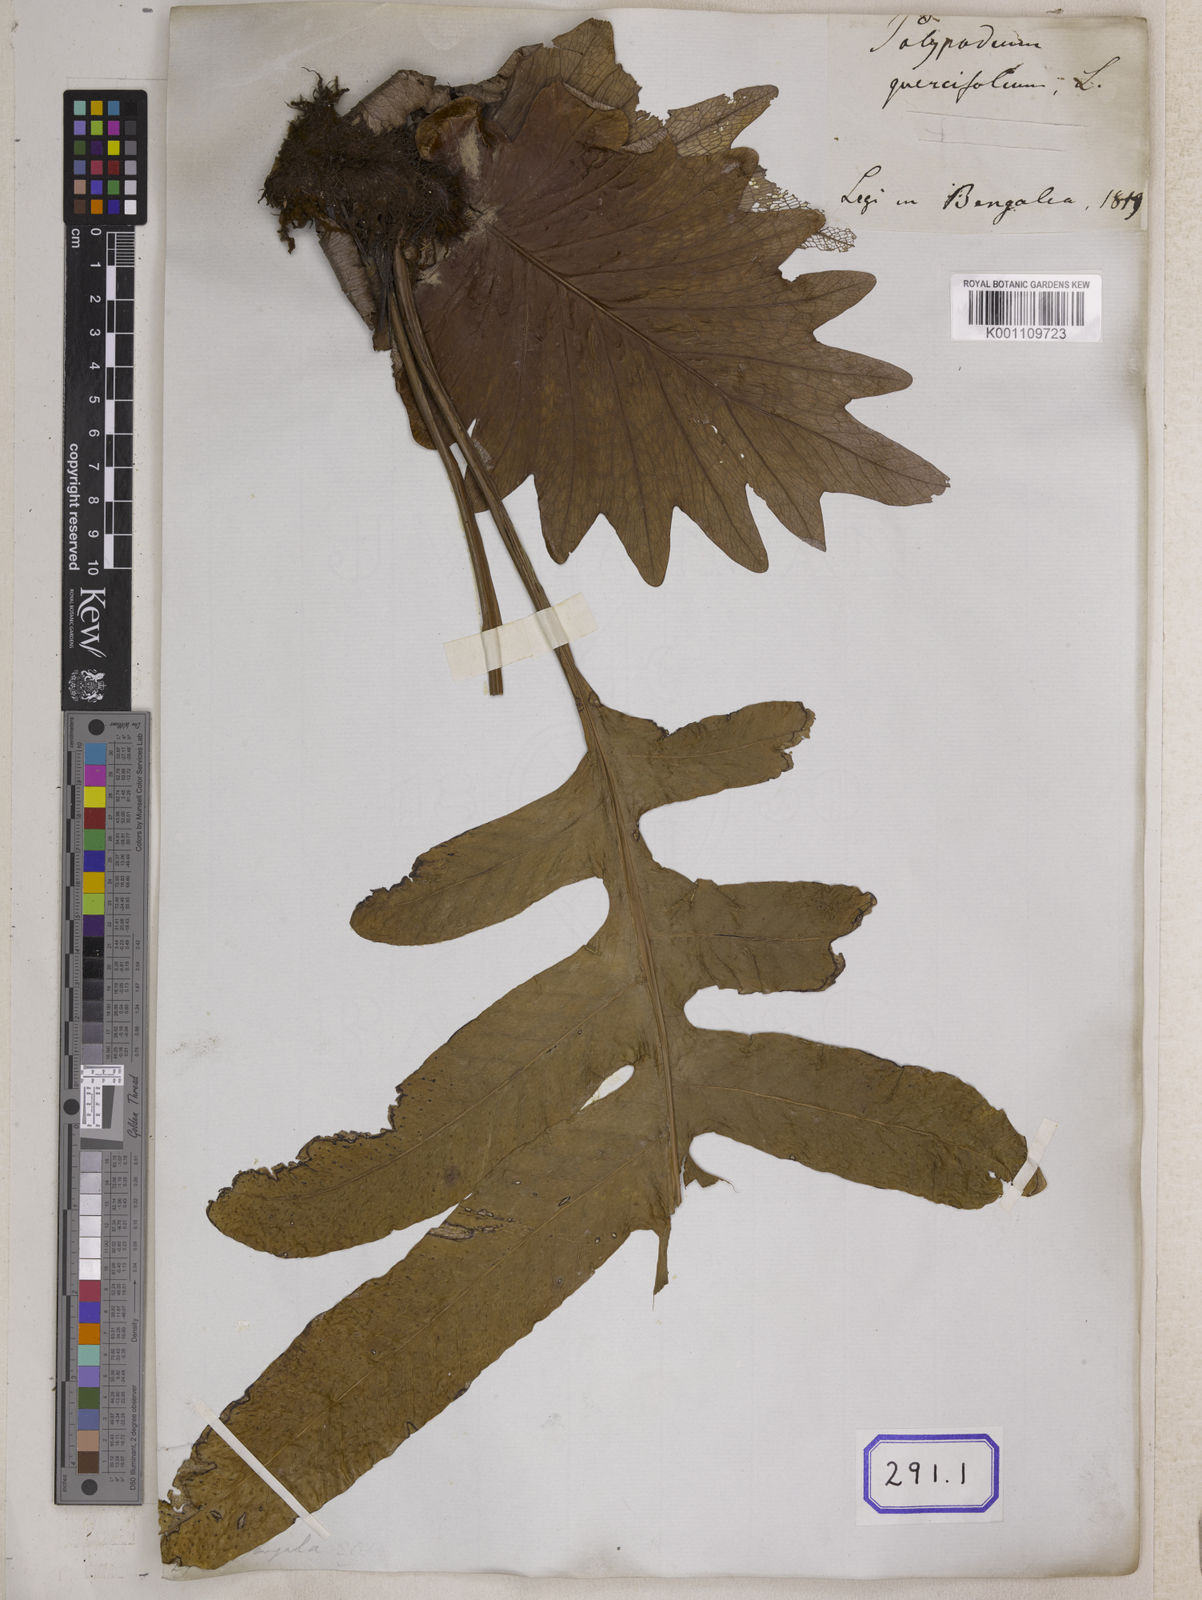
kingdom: Plantae
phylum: Tracheophyta
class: Polypodiopsida
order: Polypodiales
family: Polypodiaceae
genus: Drynaria
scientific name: Drynaria quercifolia
